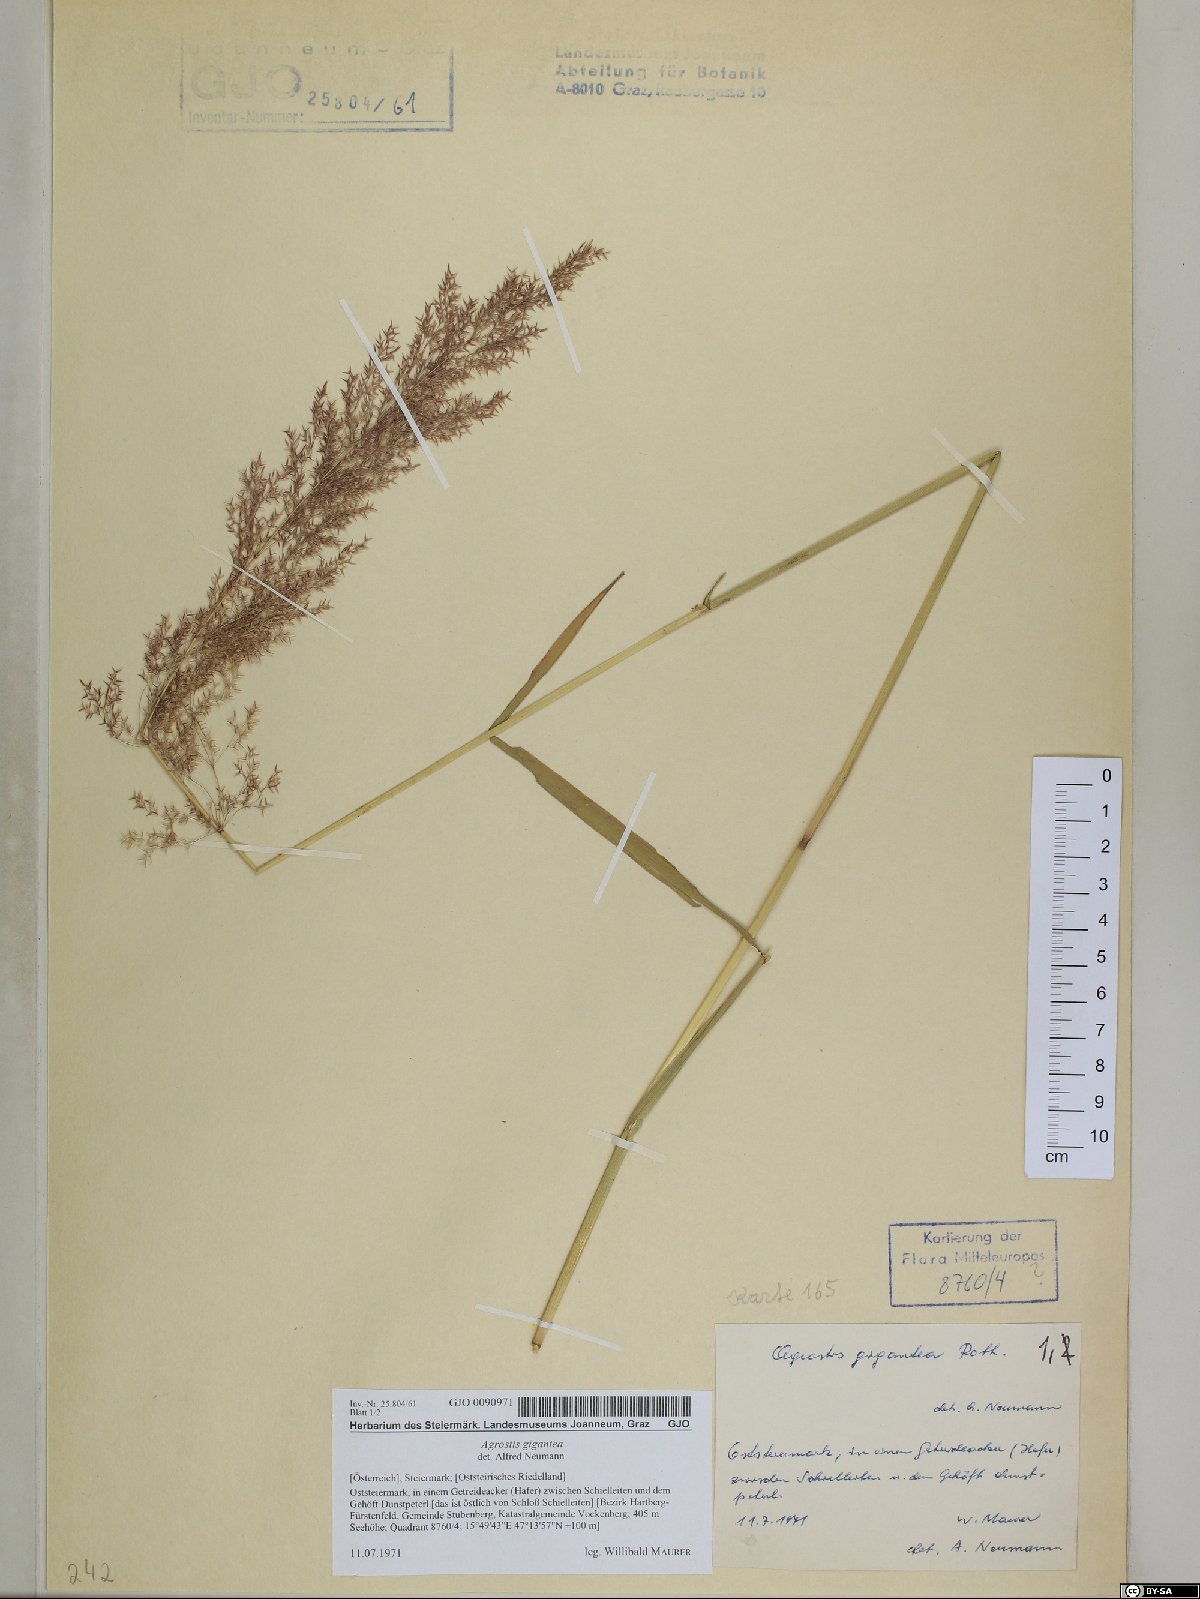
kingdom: Plantae
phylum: Tracheophyta
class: Liliopsida
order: Poales
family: Poaceae
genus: Agrostis
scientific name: Agrostis gigantea
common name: Black bent
